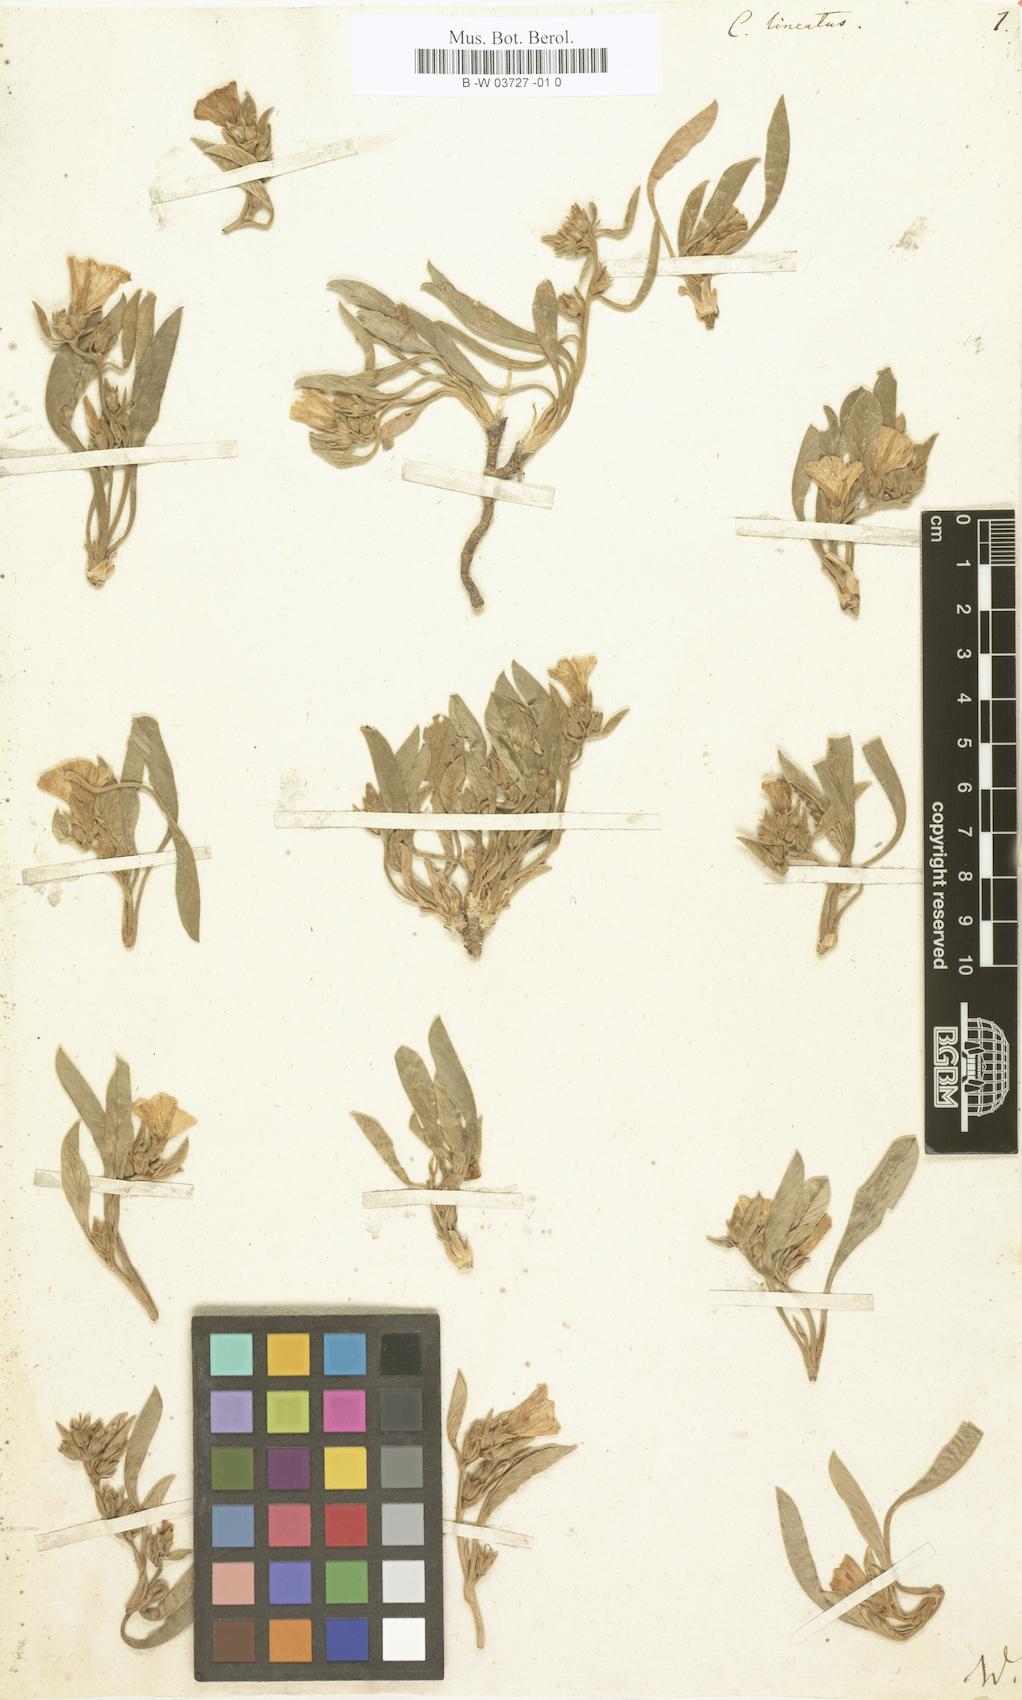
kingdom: Plantae
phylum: Tracheophyta
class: Magnoliopsida
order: Solanales
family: Convolvulaceae
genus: Convolvulus
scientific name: Convolvulus lineatus
